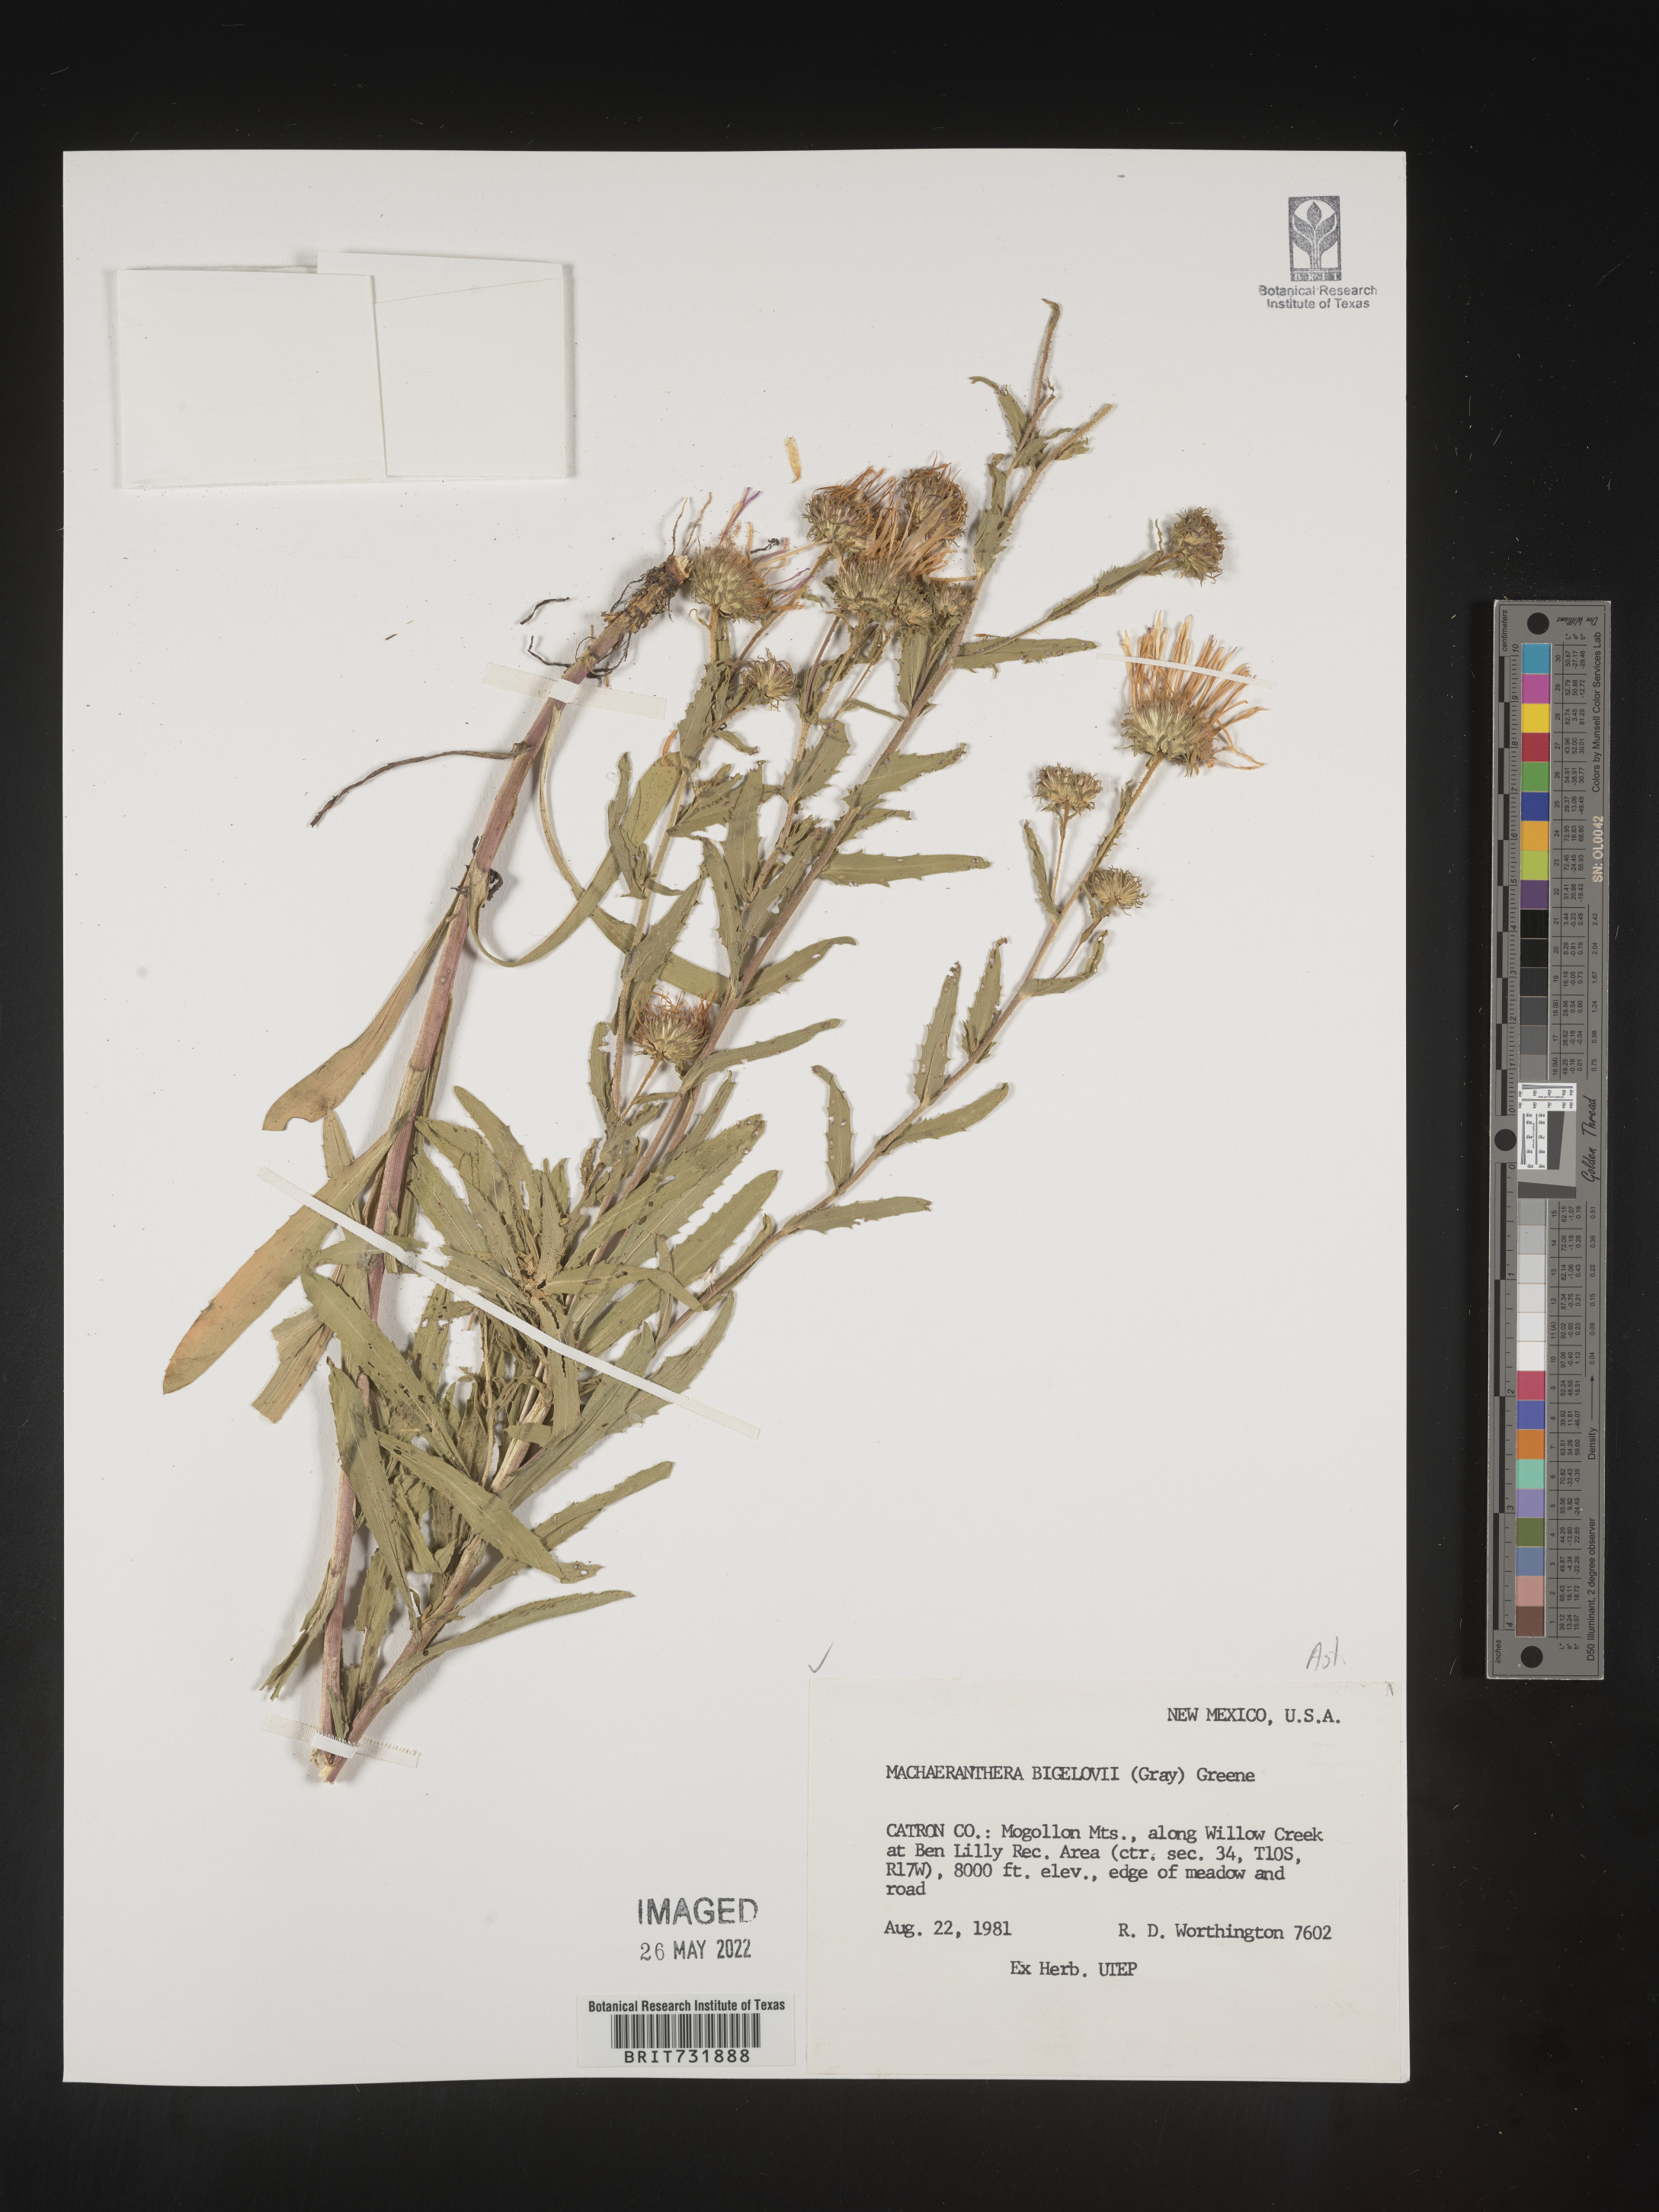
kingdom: Plantae
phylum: Tracheophyta
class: Magnoliopsida
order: Asterales
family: Asteraceae
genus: Dieteria
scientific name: Dieteria bigelovii
